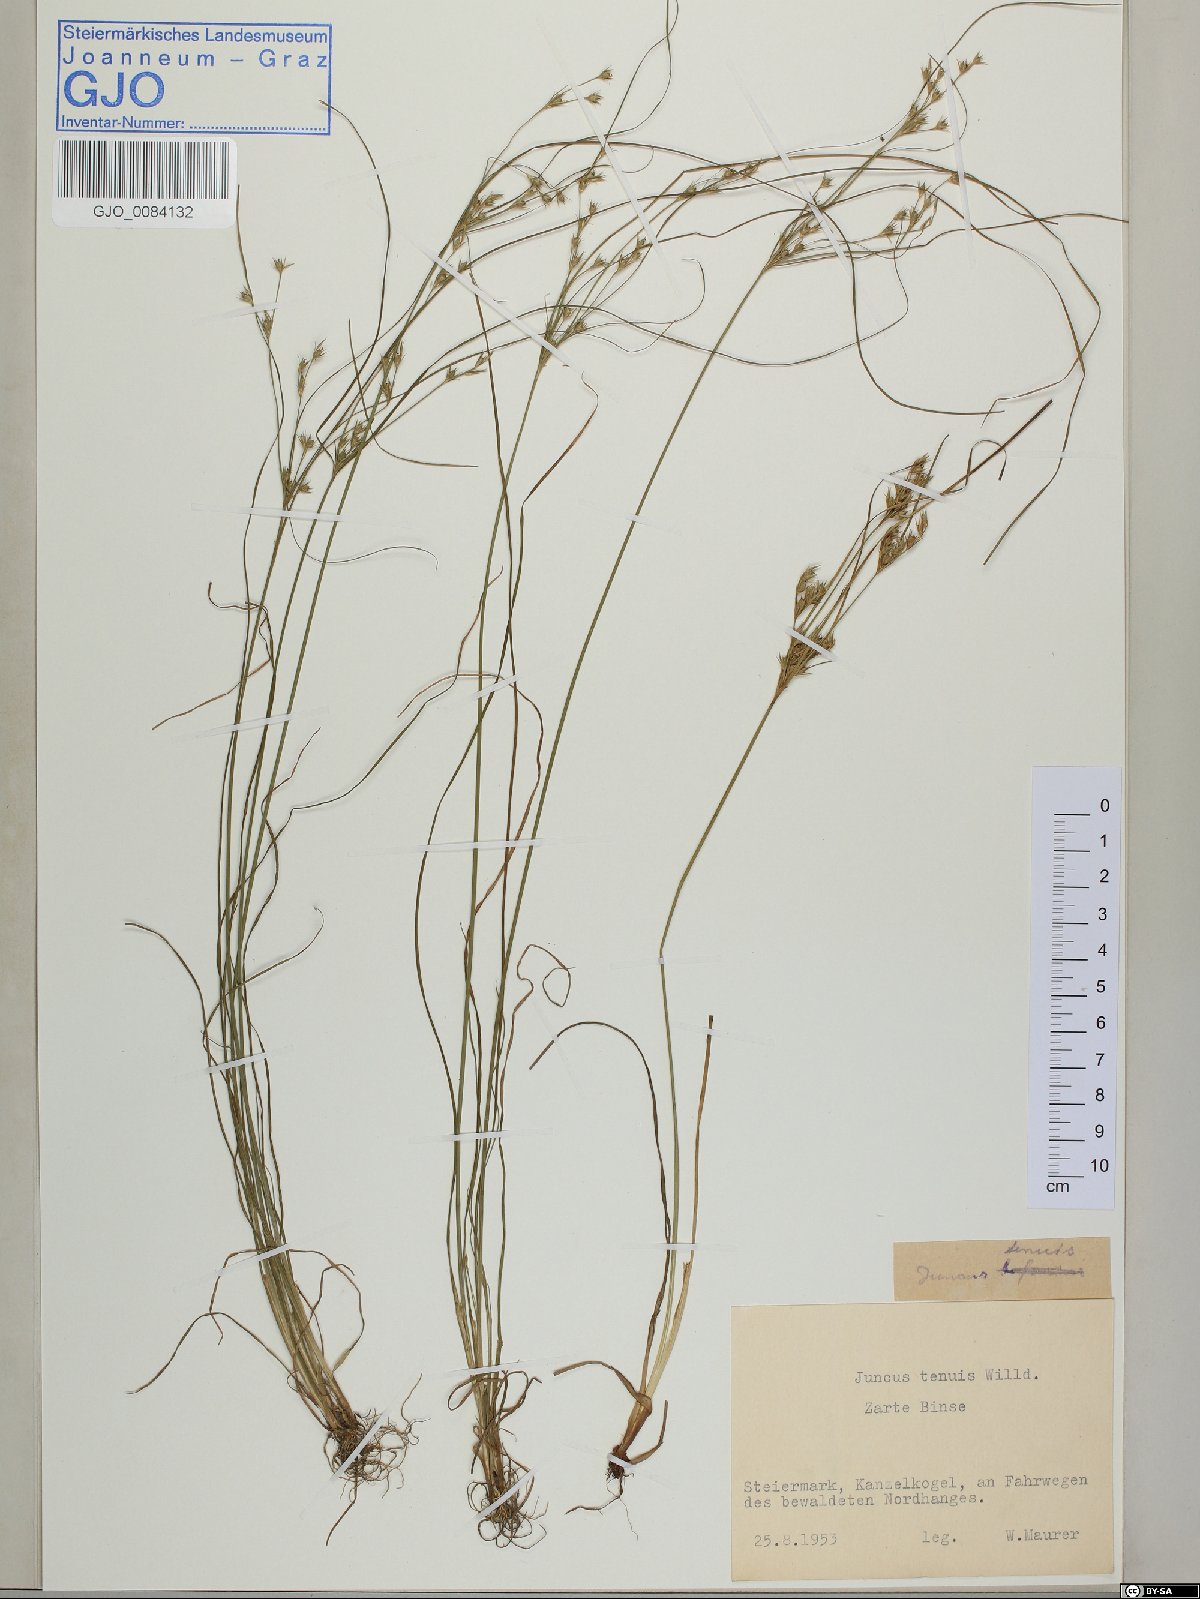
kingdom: Plantae
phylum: Tracheophyta
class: Liliopsida
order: Poales
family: Juncaceae
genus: Juncus
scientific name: Juncus tenuis
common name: Slender rush
